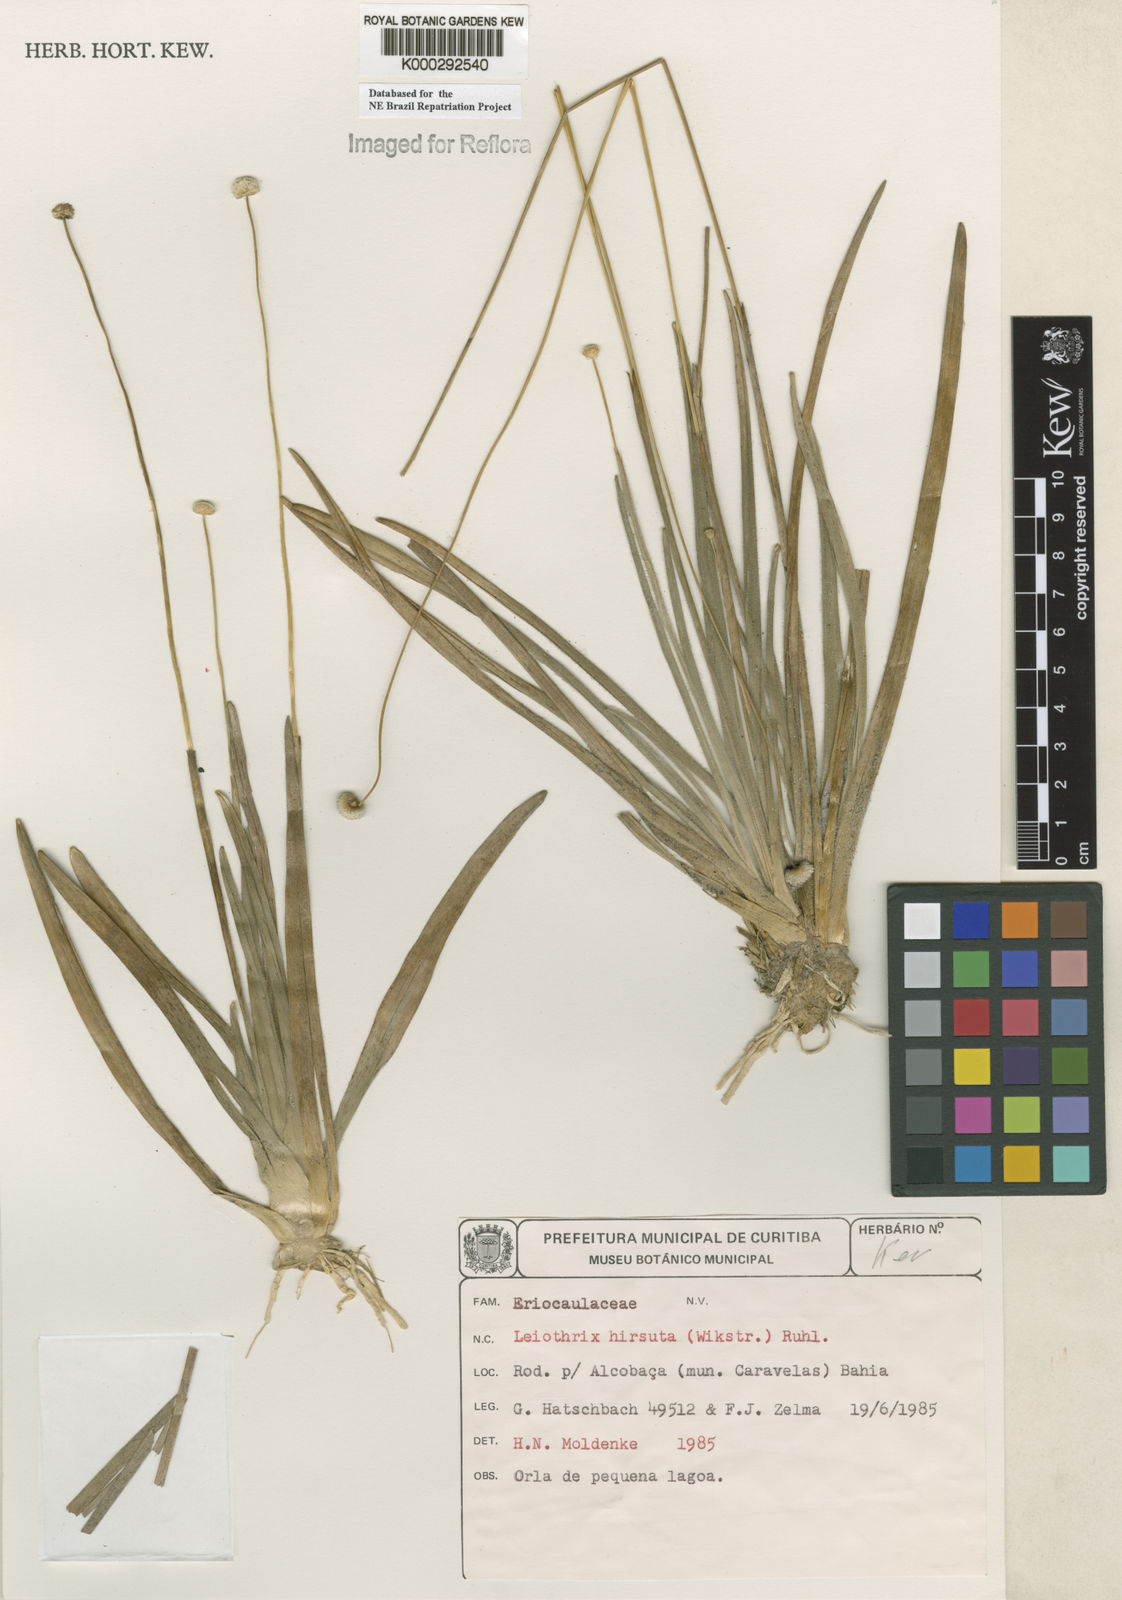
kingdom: Plantae
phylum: Tracheophyta
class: Liliopsida
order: Poales
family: Eriocaulaceae
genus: Leiothrix
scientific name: Leiothrix hirsuta
